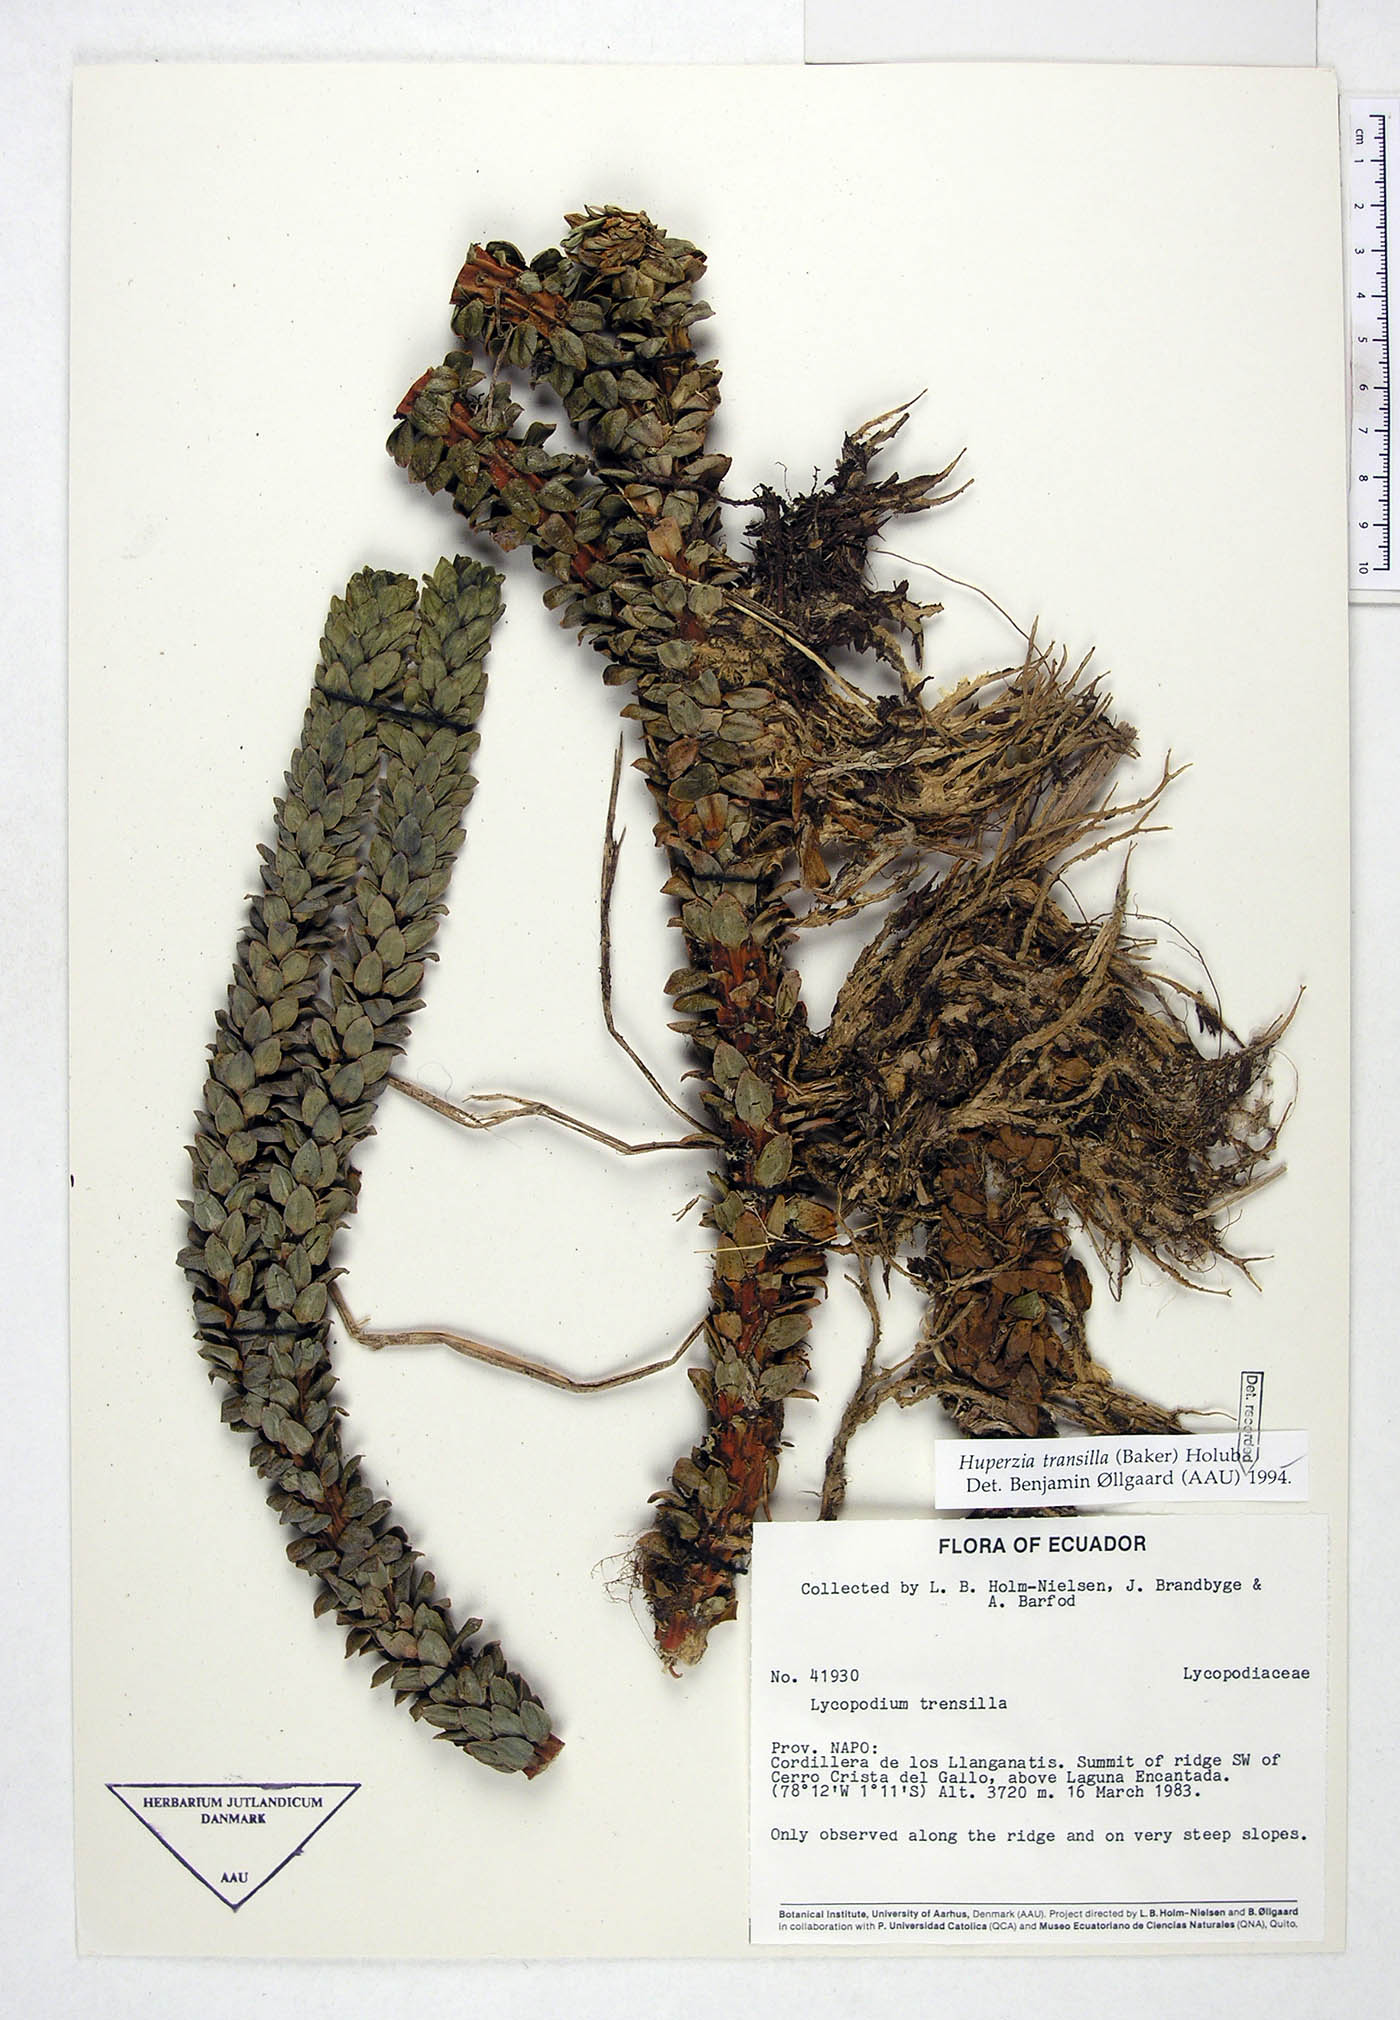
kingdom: Plantae
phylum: Tracheophyta
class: Lycopodiopsida
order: Lycopodiales
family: Lycopodiaceae
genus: Phlegmariurus
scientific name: Phlegmariurus transilla
